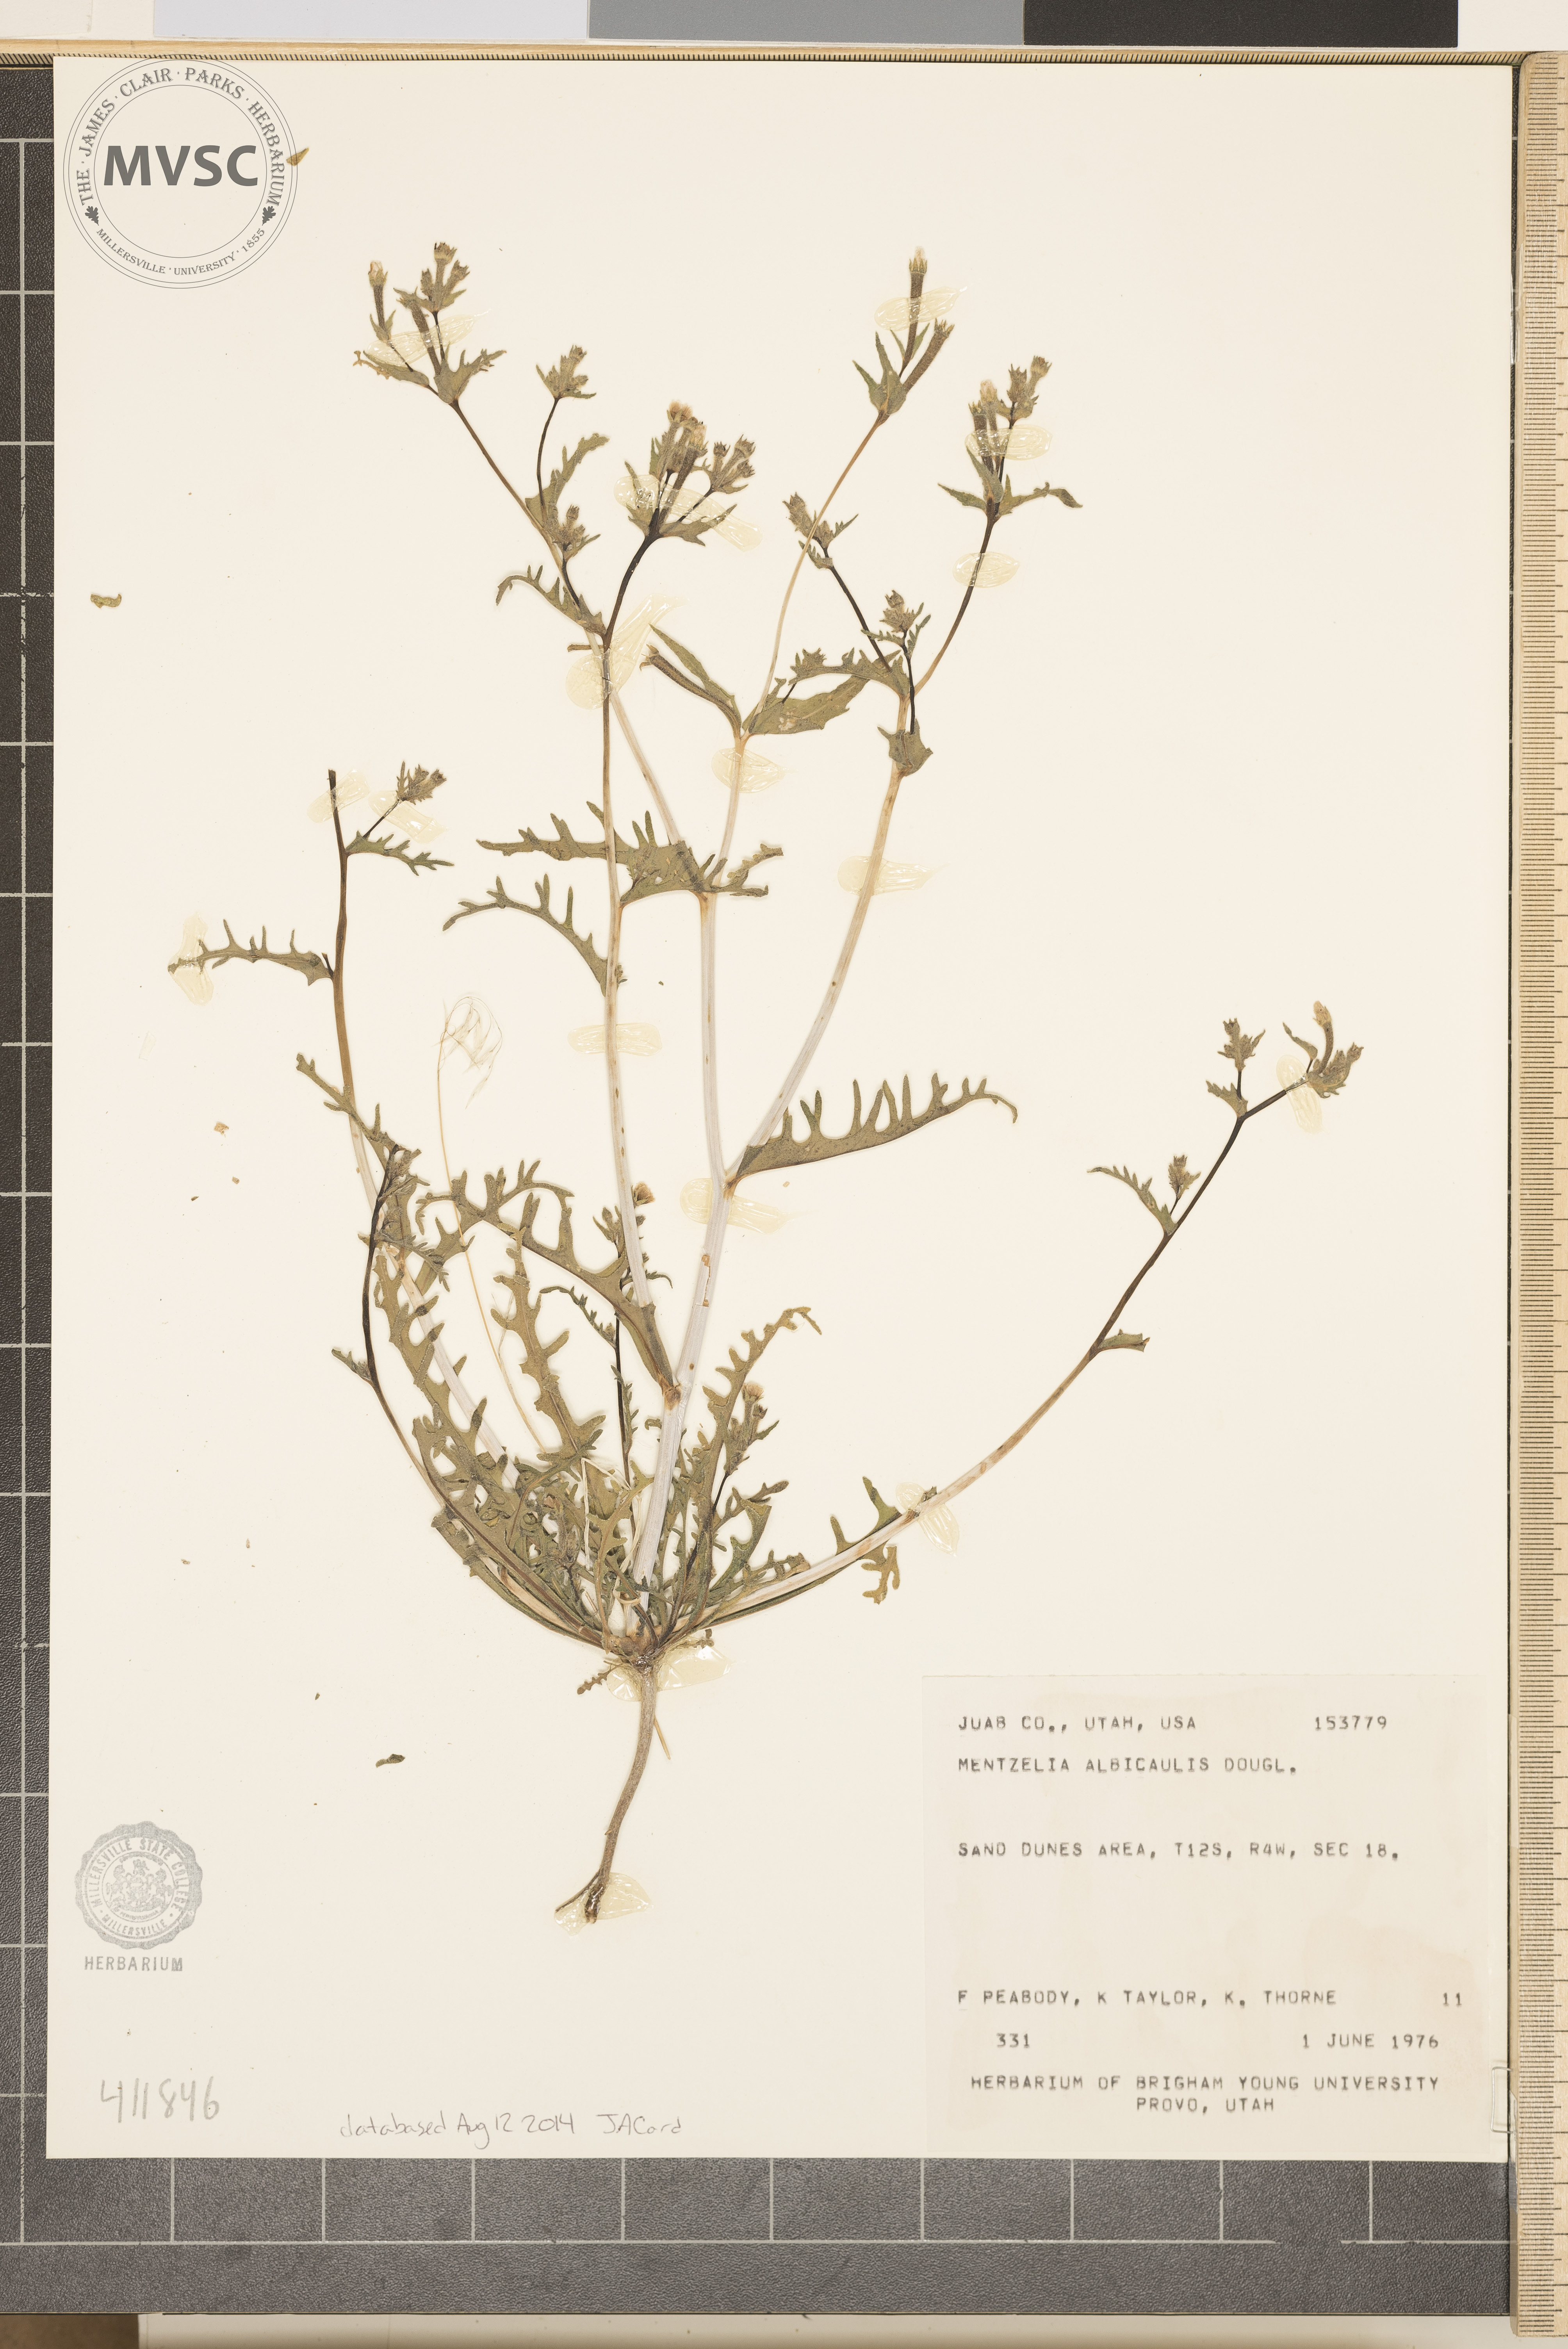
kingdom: Plantae
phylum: Tracheophyta
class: Magnoliopsida
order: Cornales
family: Loasaceae
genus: Mentzelia
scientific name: Mentzelia albicaulis
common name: White-stem blazingstar
